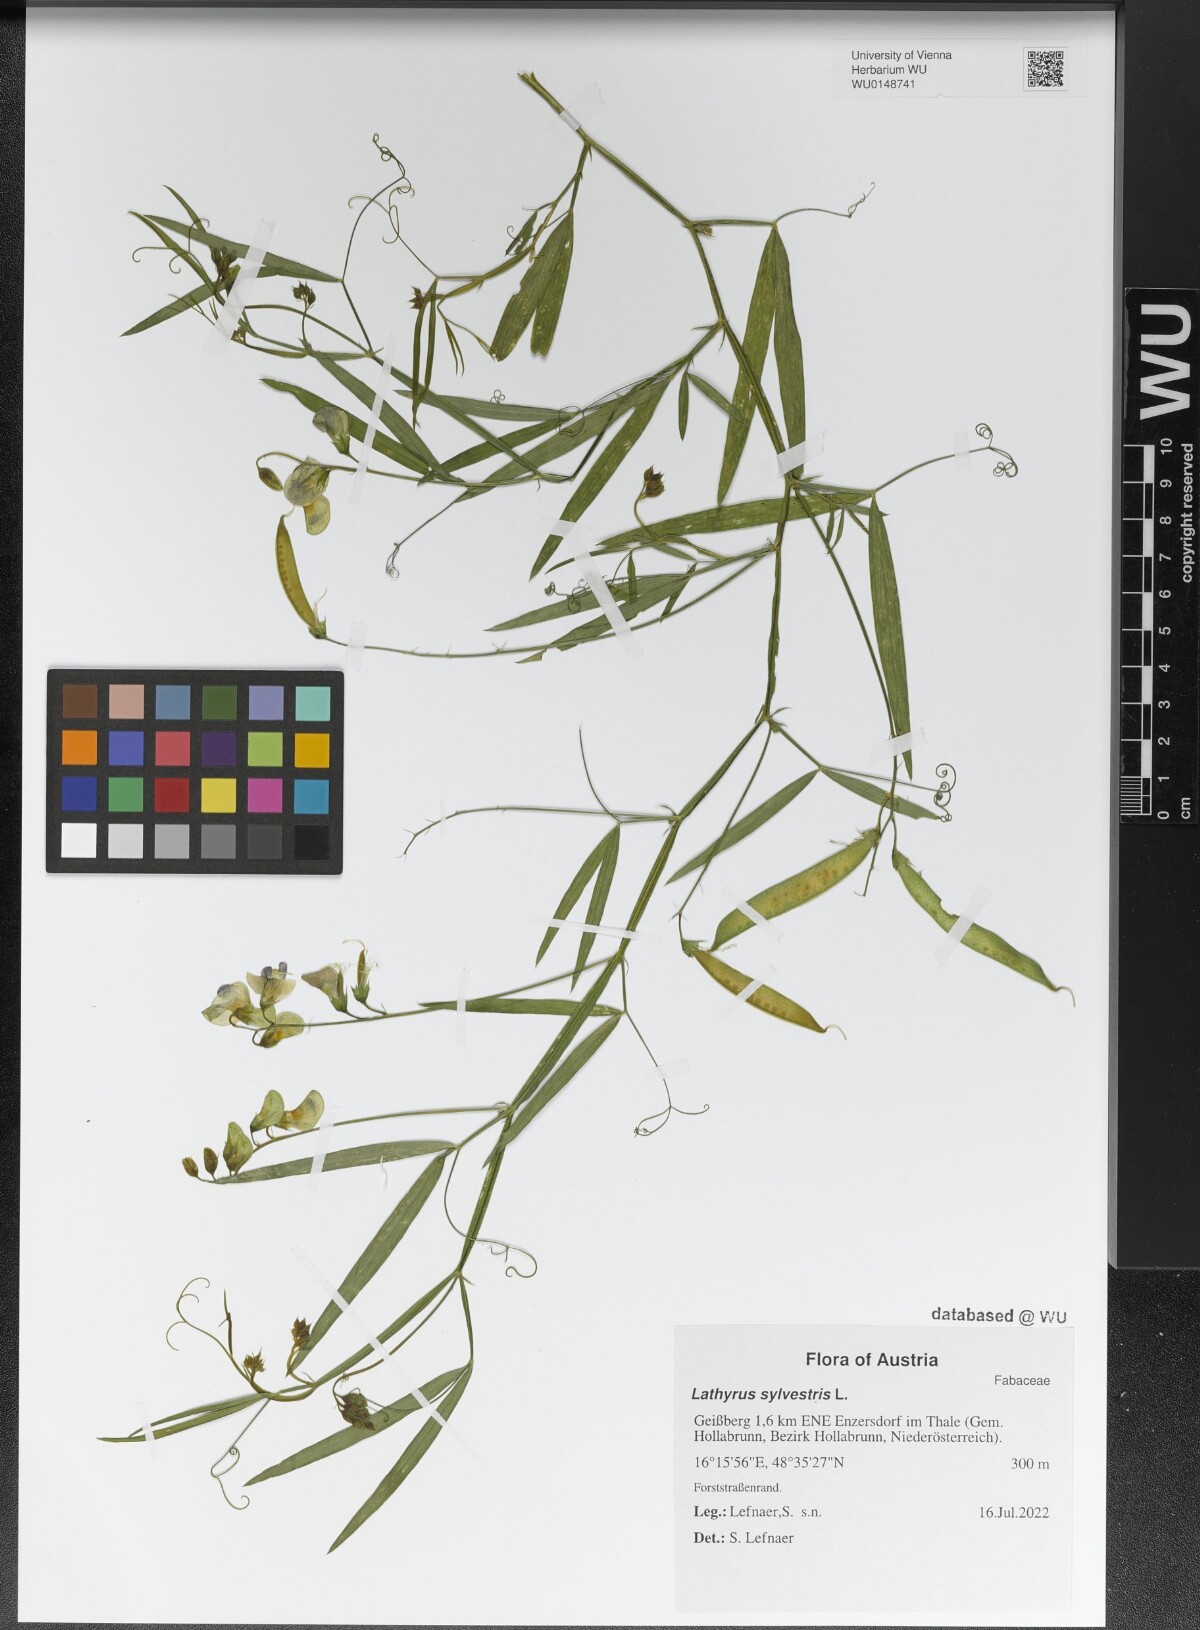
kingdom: Plantae
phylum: Tracheophyta
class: Magnoliopsida
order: Fabales
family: Fabaceae
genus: Lathyrus
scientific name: Lathyrus sylvestris
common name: Flat pea
